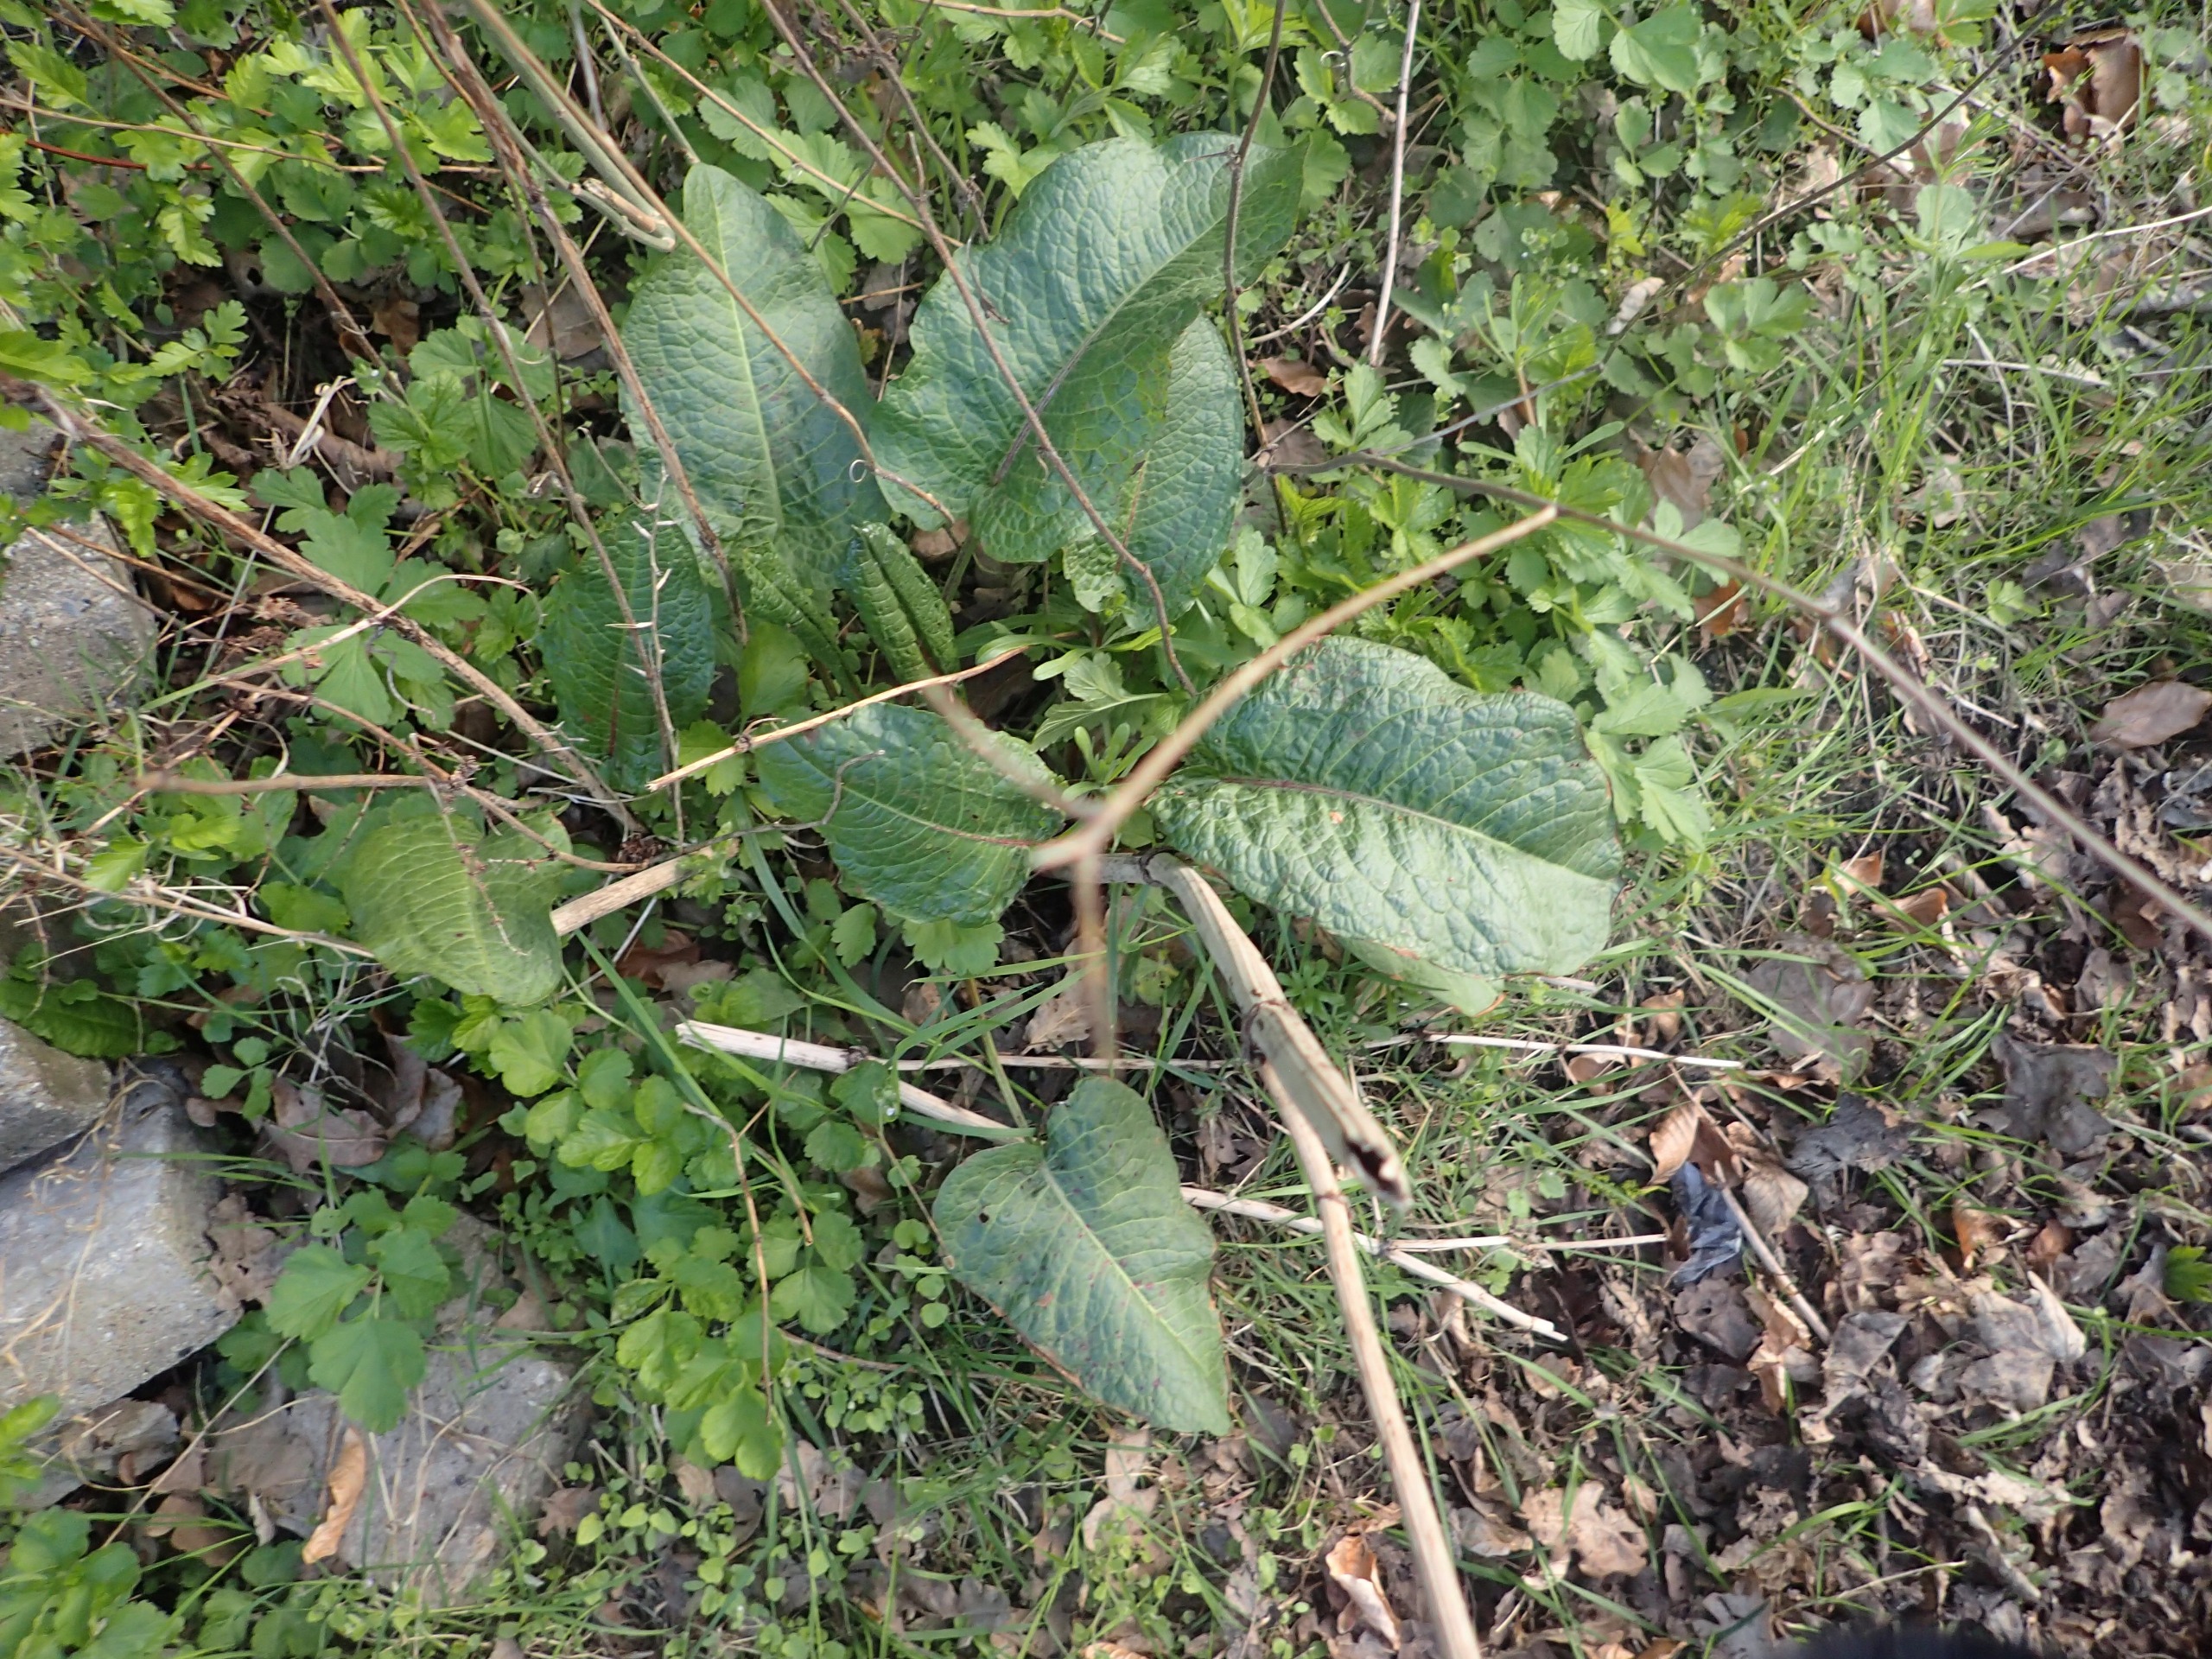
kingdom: Plantae
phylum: Tracheophyta
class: Magnoliopsida
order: Caryophyllales
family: Polygonaceae
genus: Rumex
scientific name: Rumex obtusifolius
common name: Butbladet skræppe
